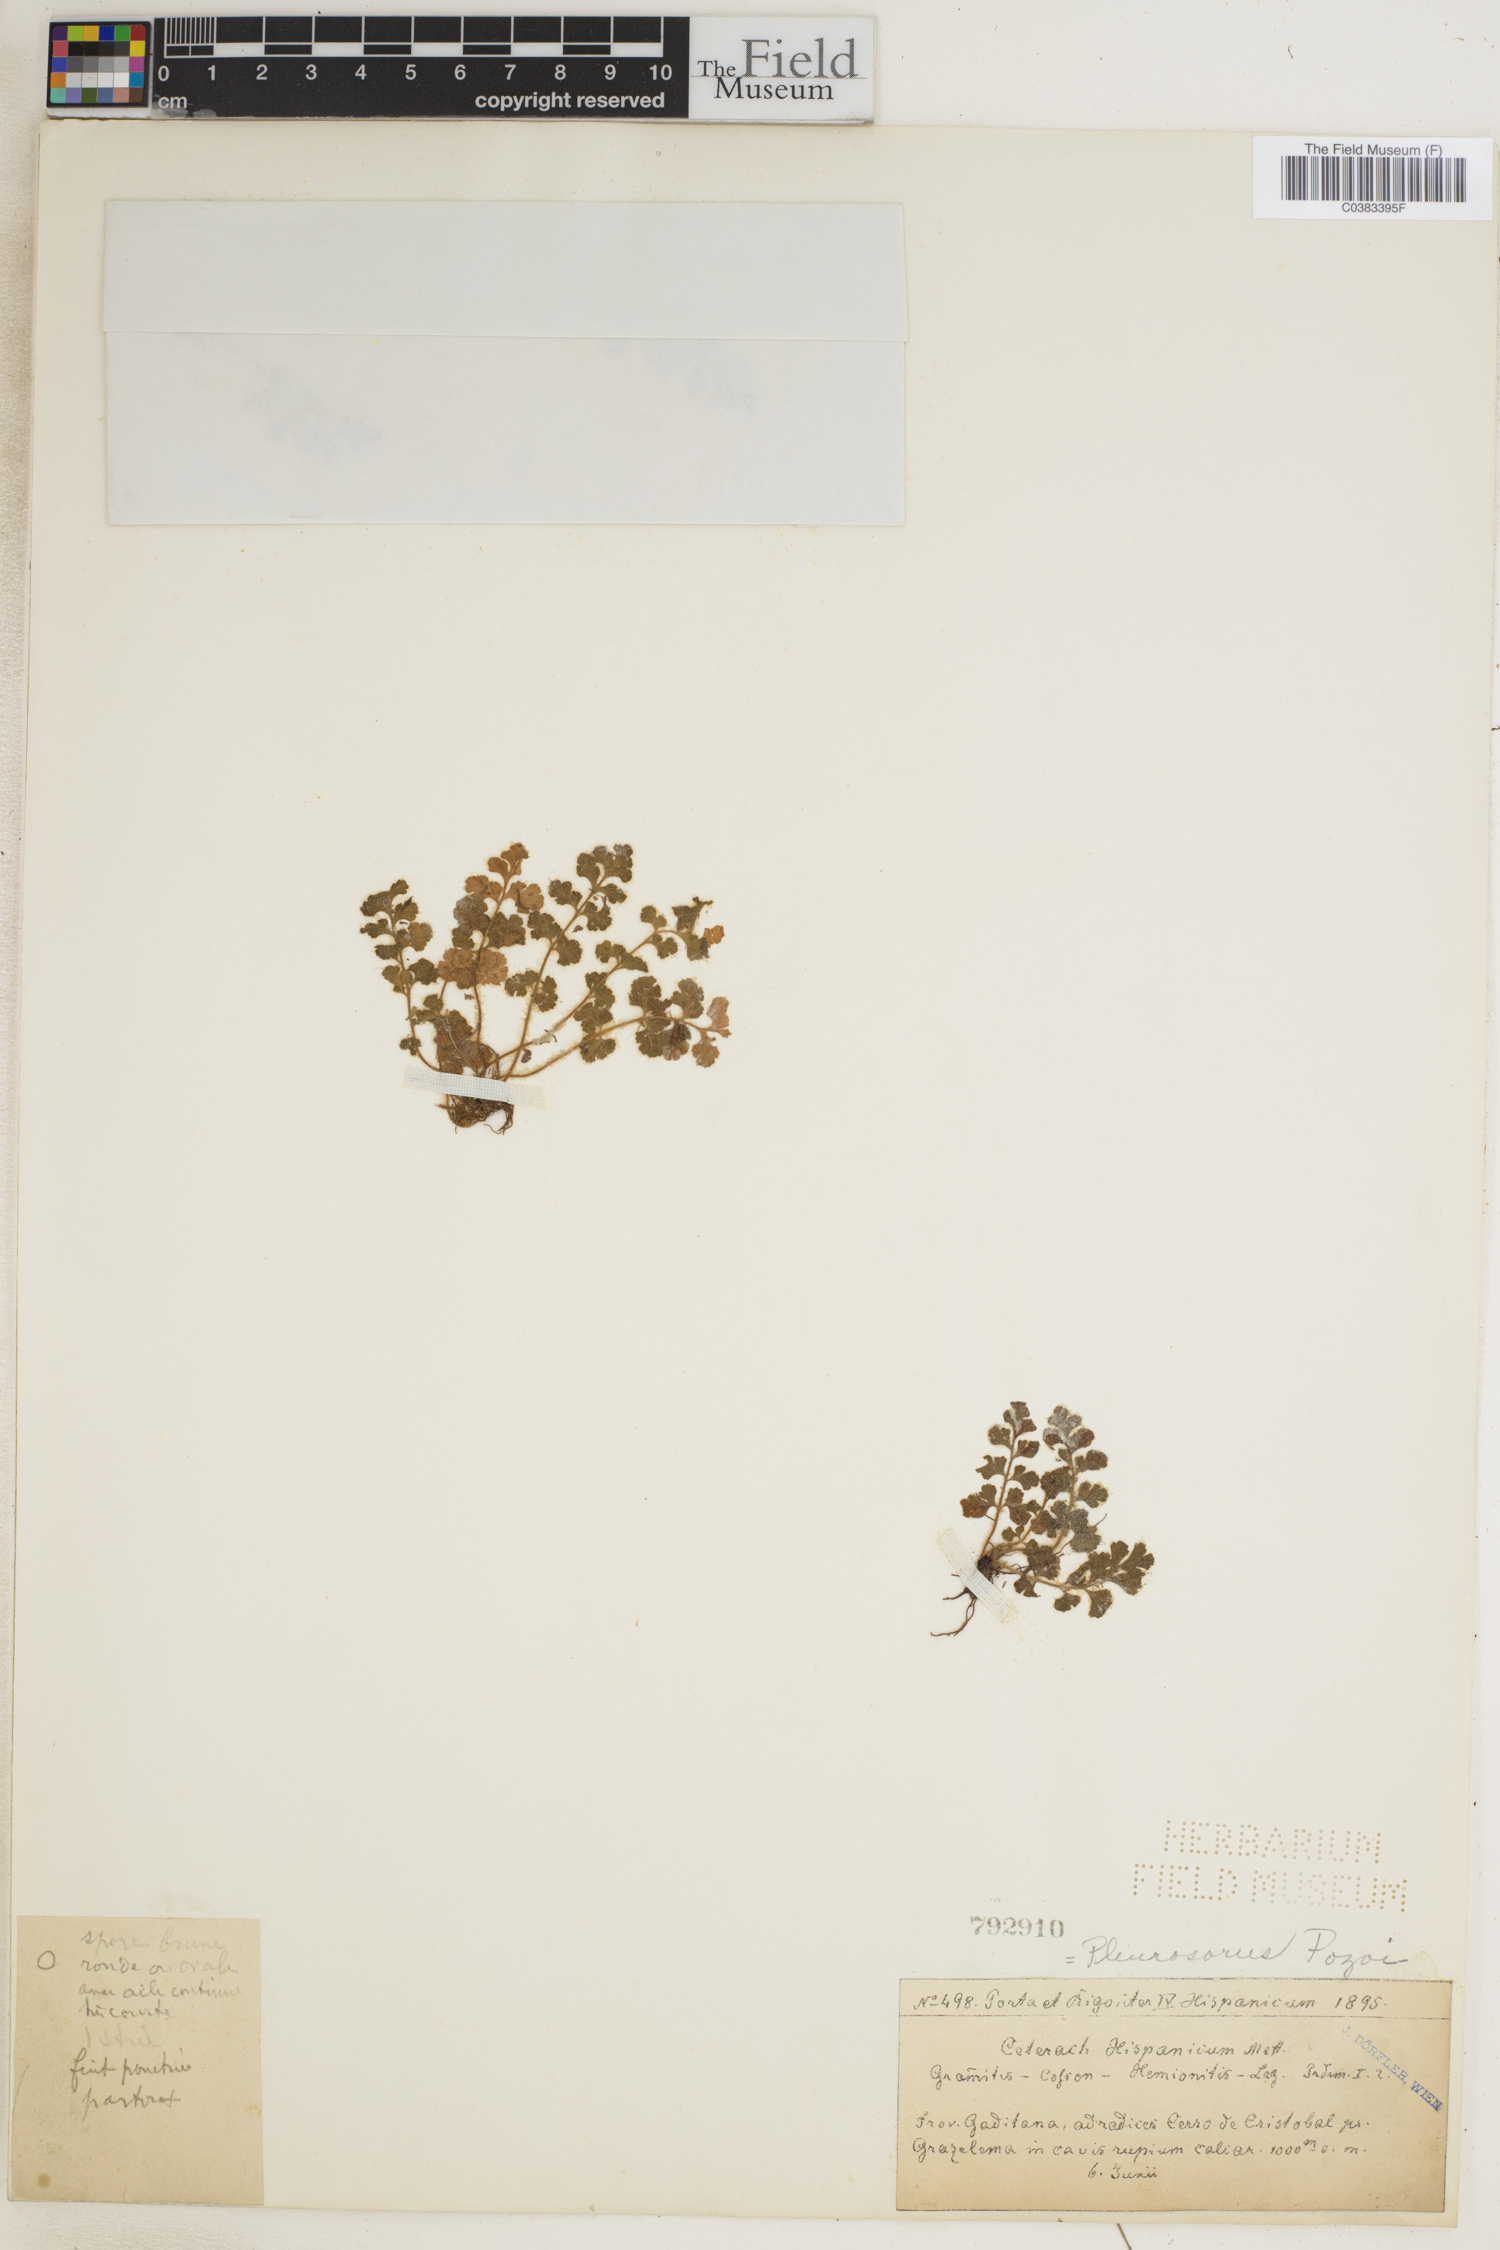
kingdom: Plantae
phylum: Tracheophyta
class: Polypodiopsida
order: Polypodiales
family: Thelypteridaceae
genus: Leptogramma
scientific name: Leptogramma pozoi
